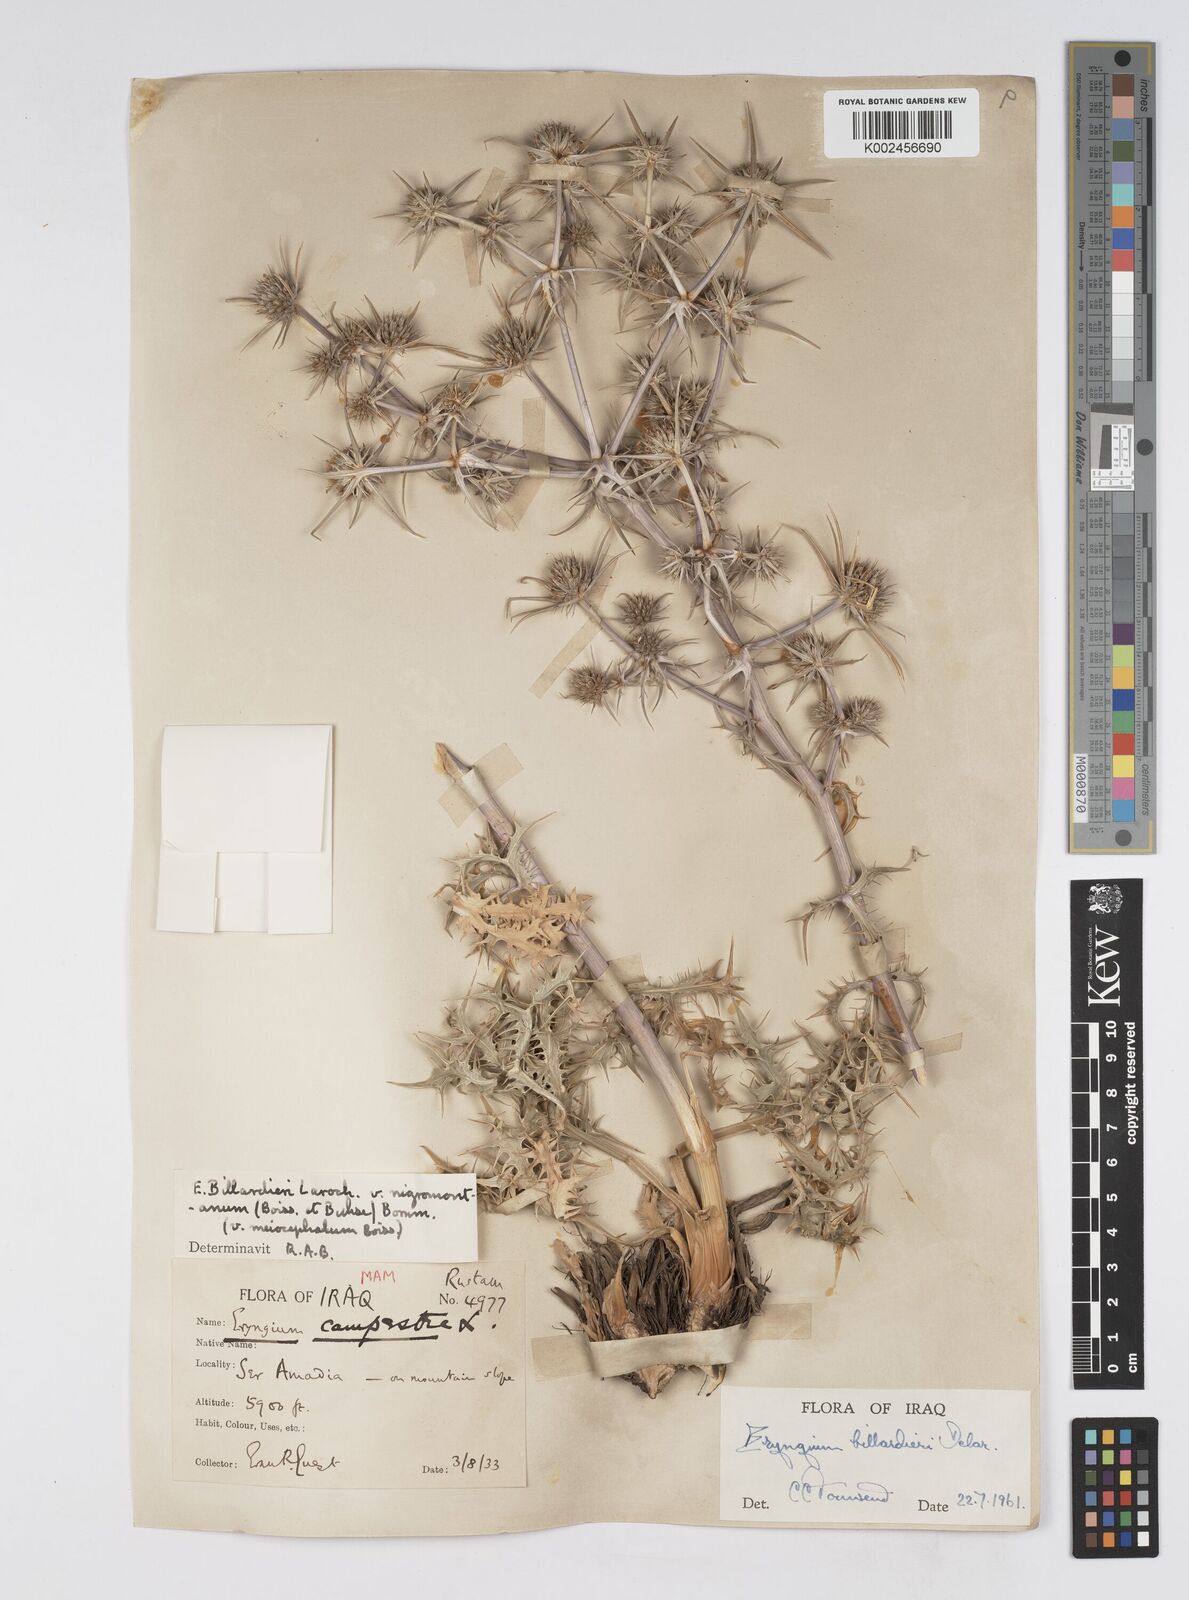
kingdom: Plantae
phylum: Tracheophyta
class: Magnoliopsida
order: Apiales
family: Apiaceae
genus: Eryngium
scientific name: Eryngium billardierei
